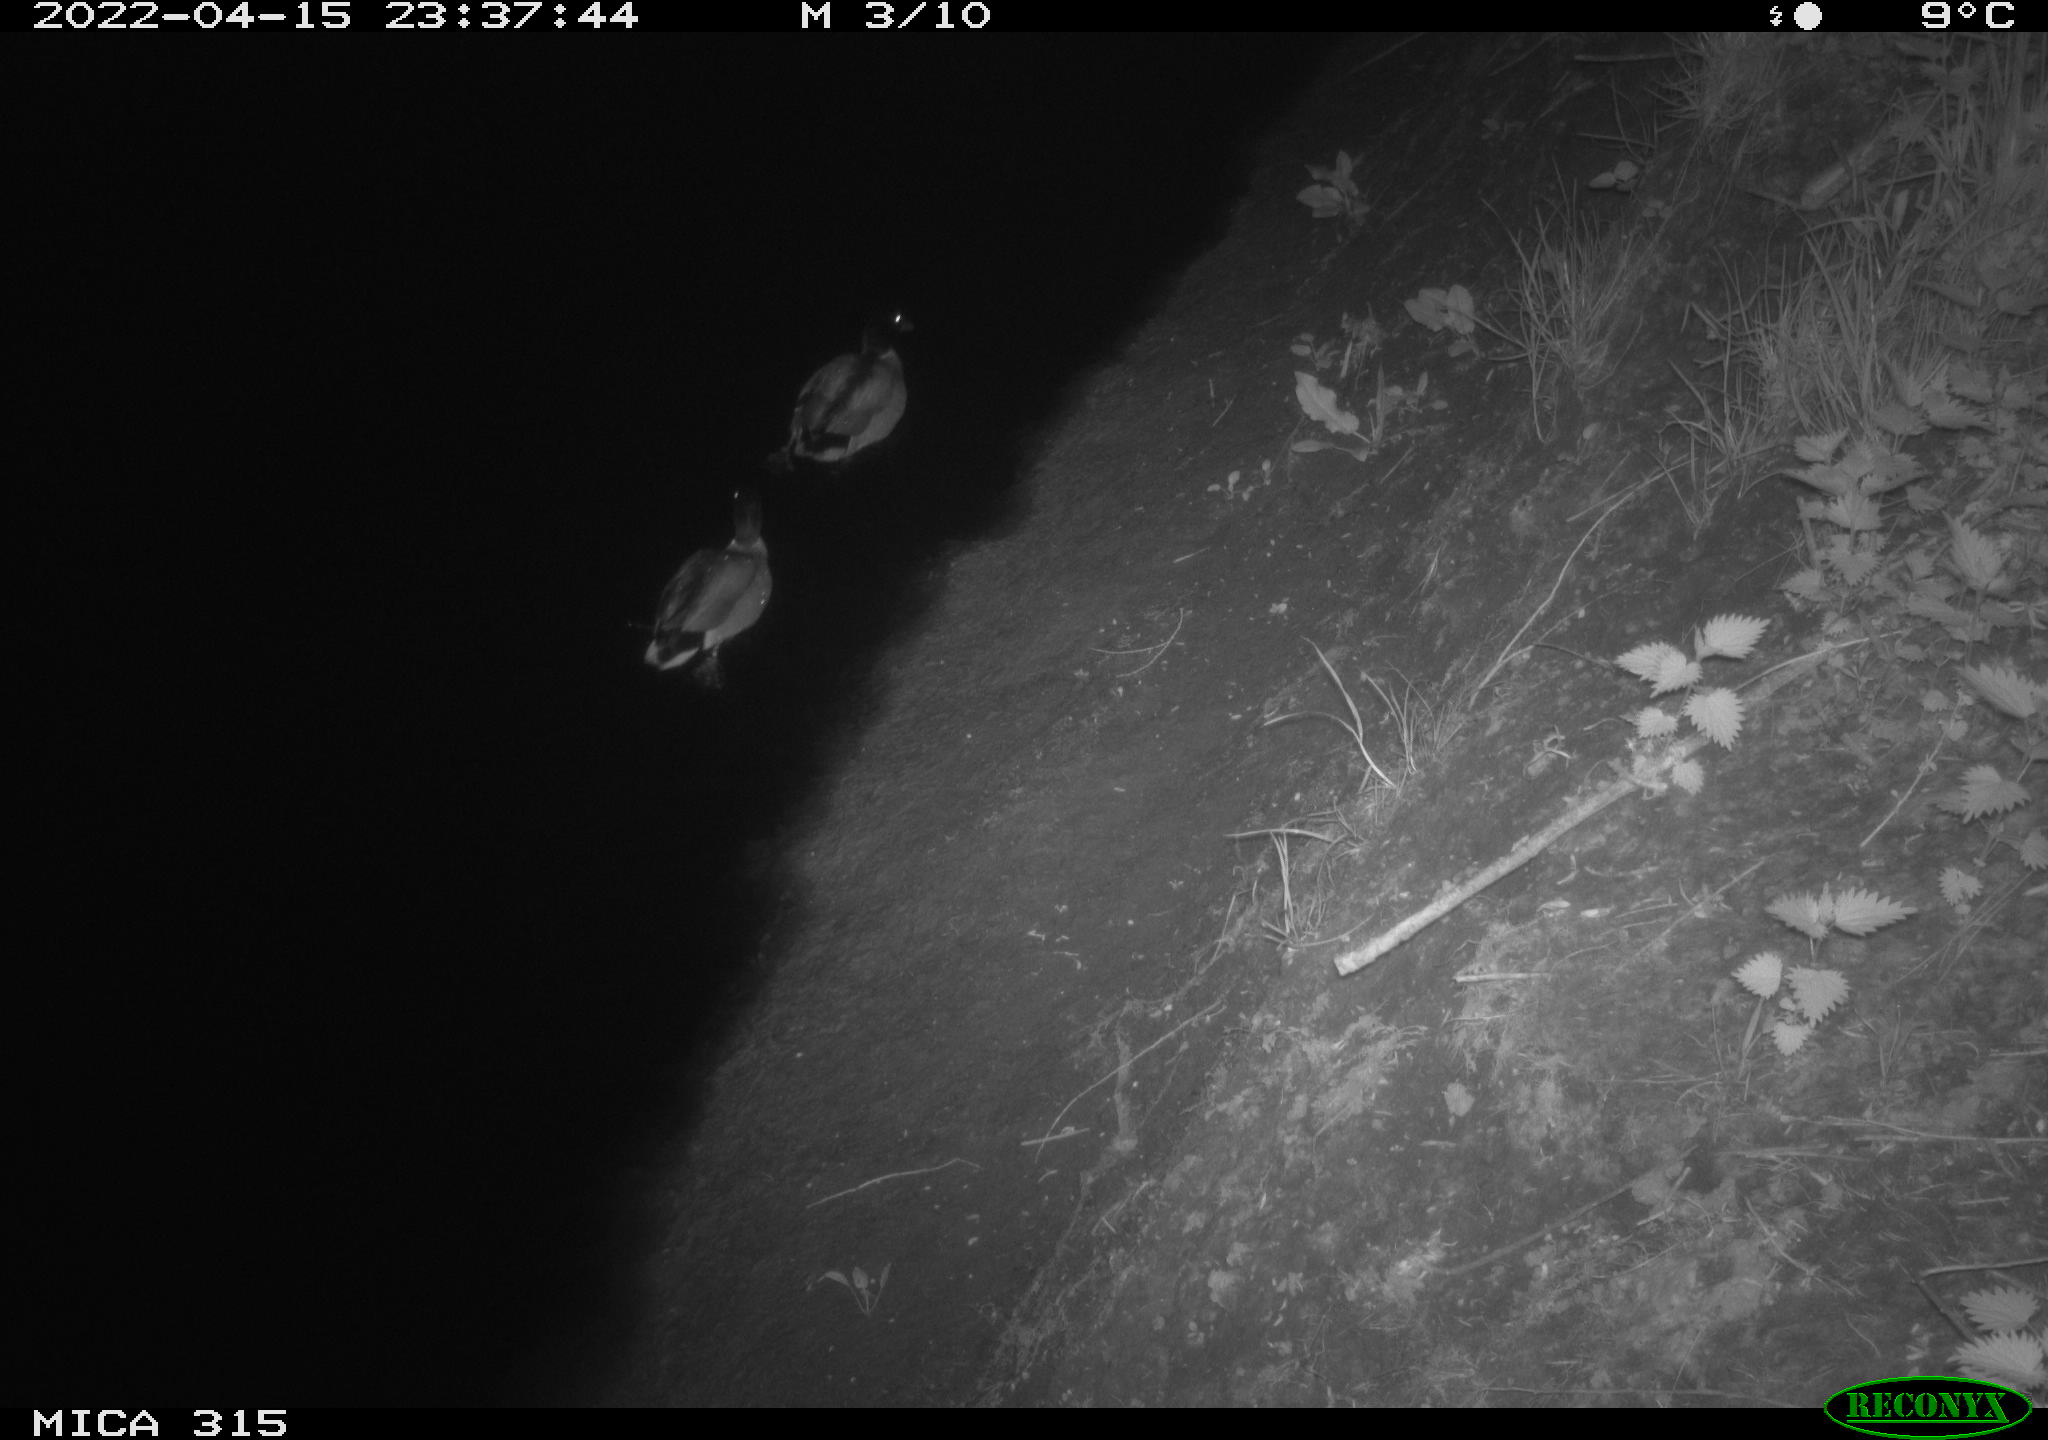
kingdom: Animalia
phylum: Chordata
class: Aves
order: Anseriformes
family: Anatidae
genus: Anas
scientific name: Anas platyrhynchos
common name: Mallard
